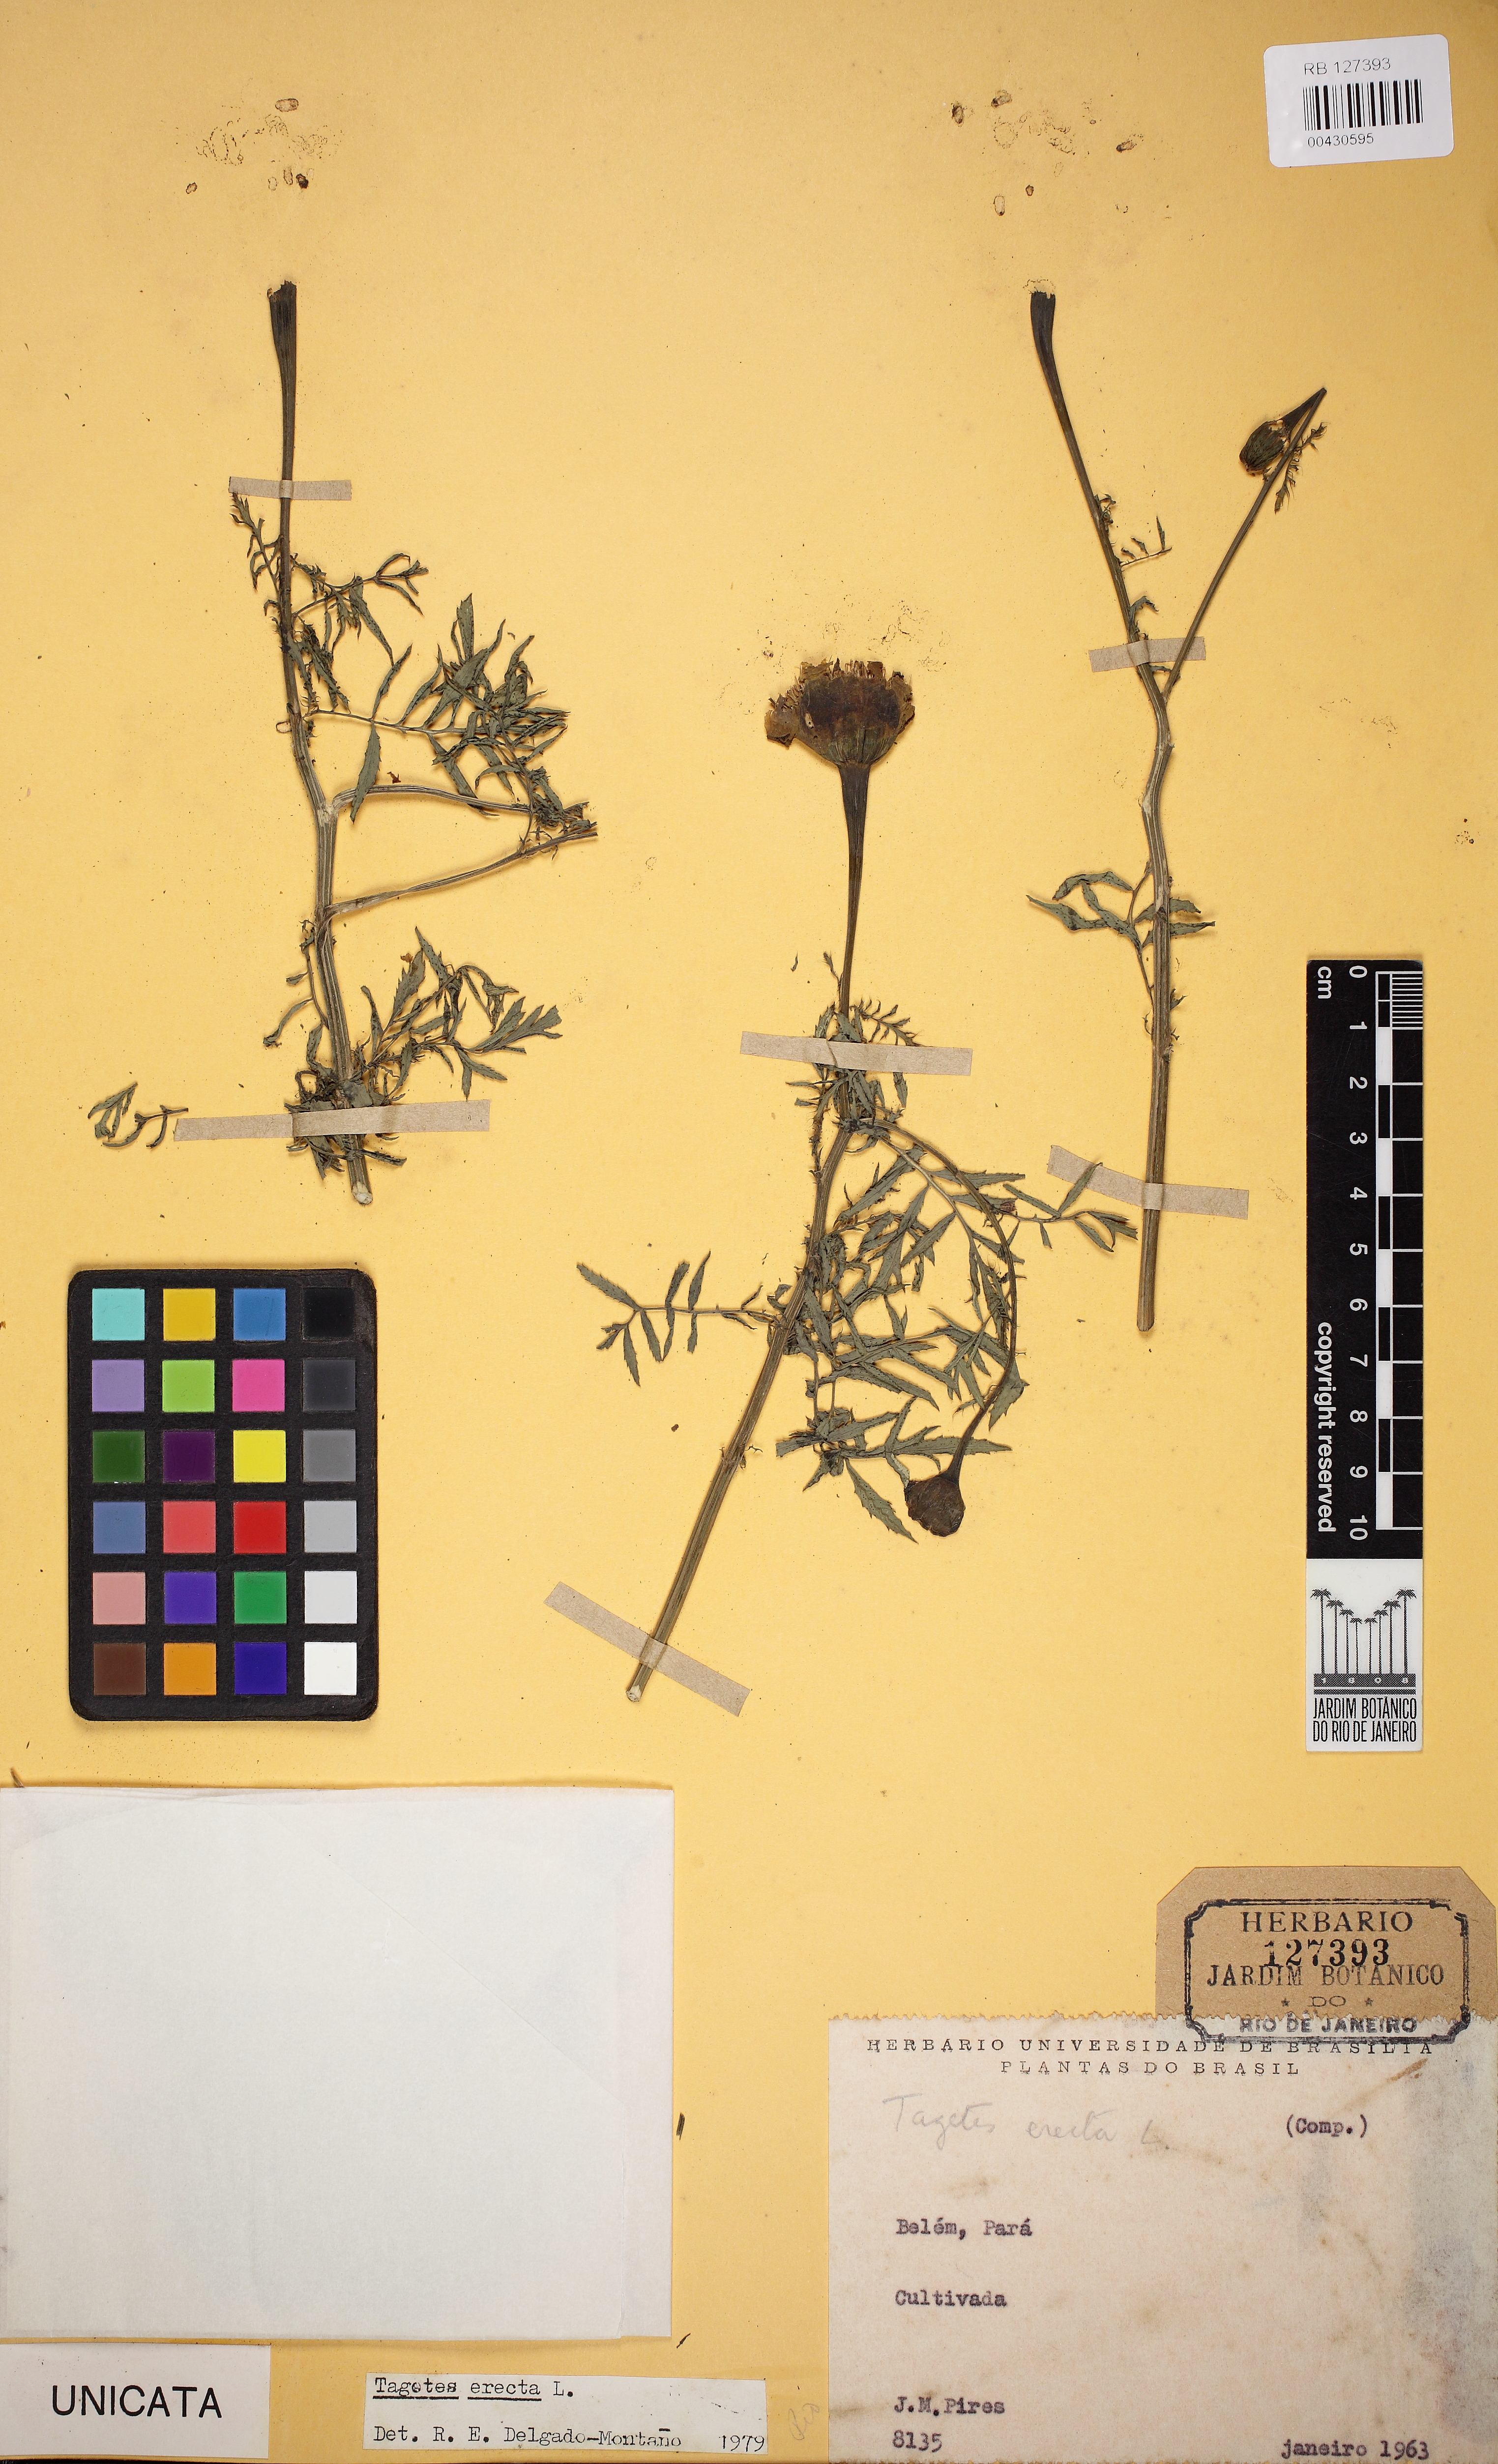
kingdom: Plantae
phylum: Tracheophyta
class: Magnoliopsida
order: Asterales
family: Asteraceae
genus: Tagetes
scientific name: Tagetes erecta
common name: African marigold
